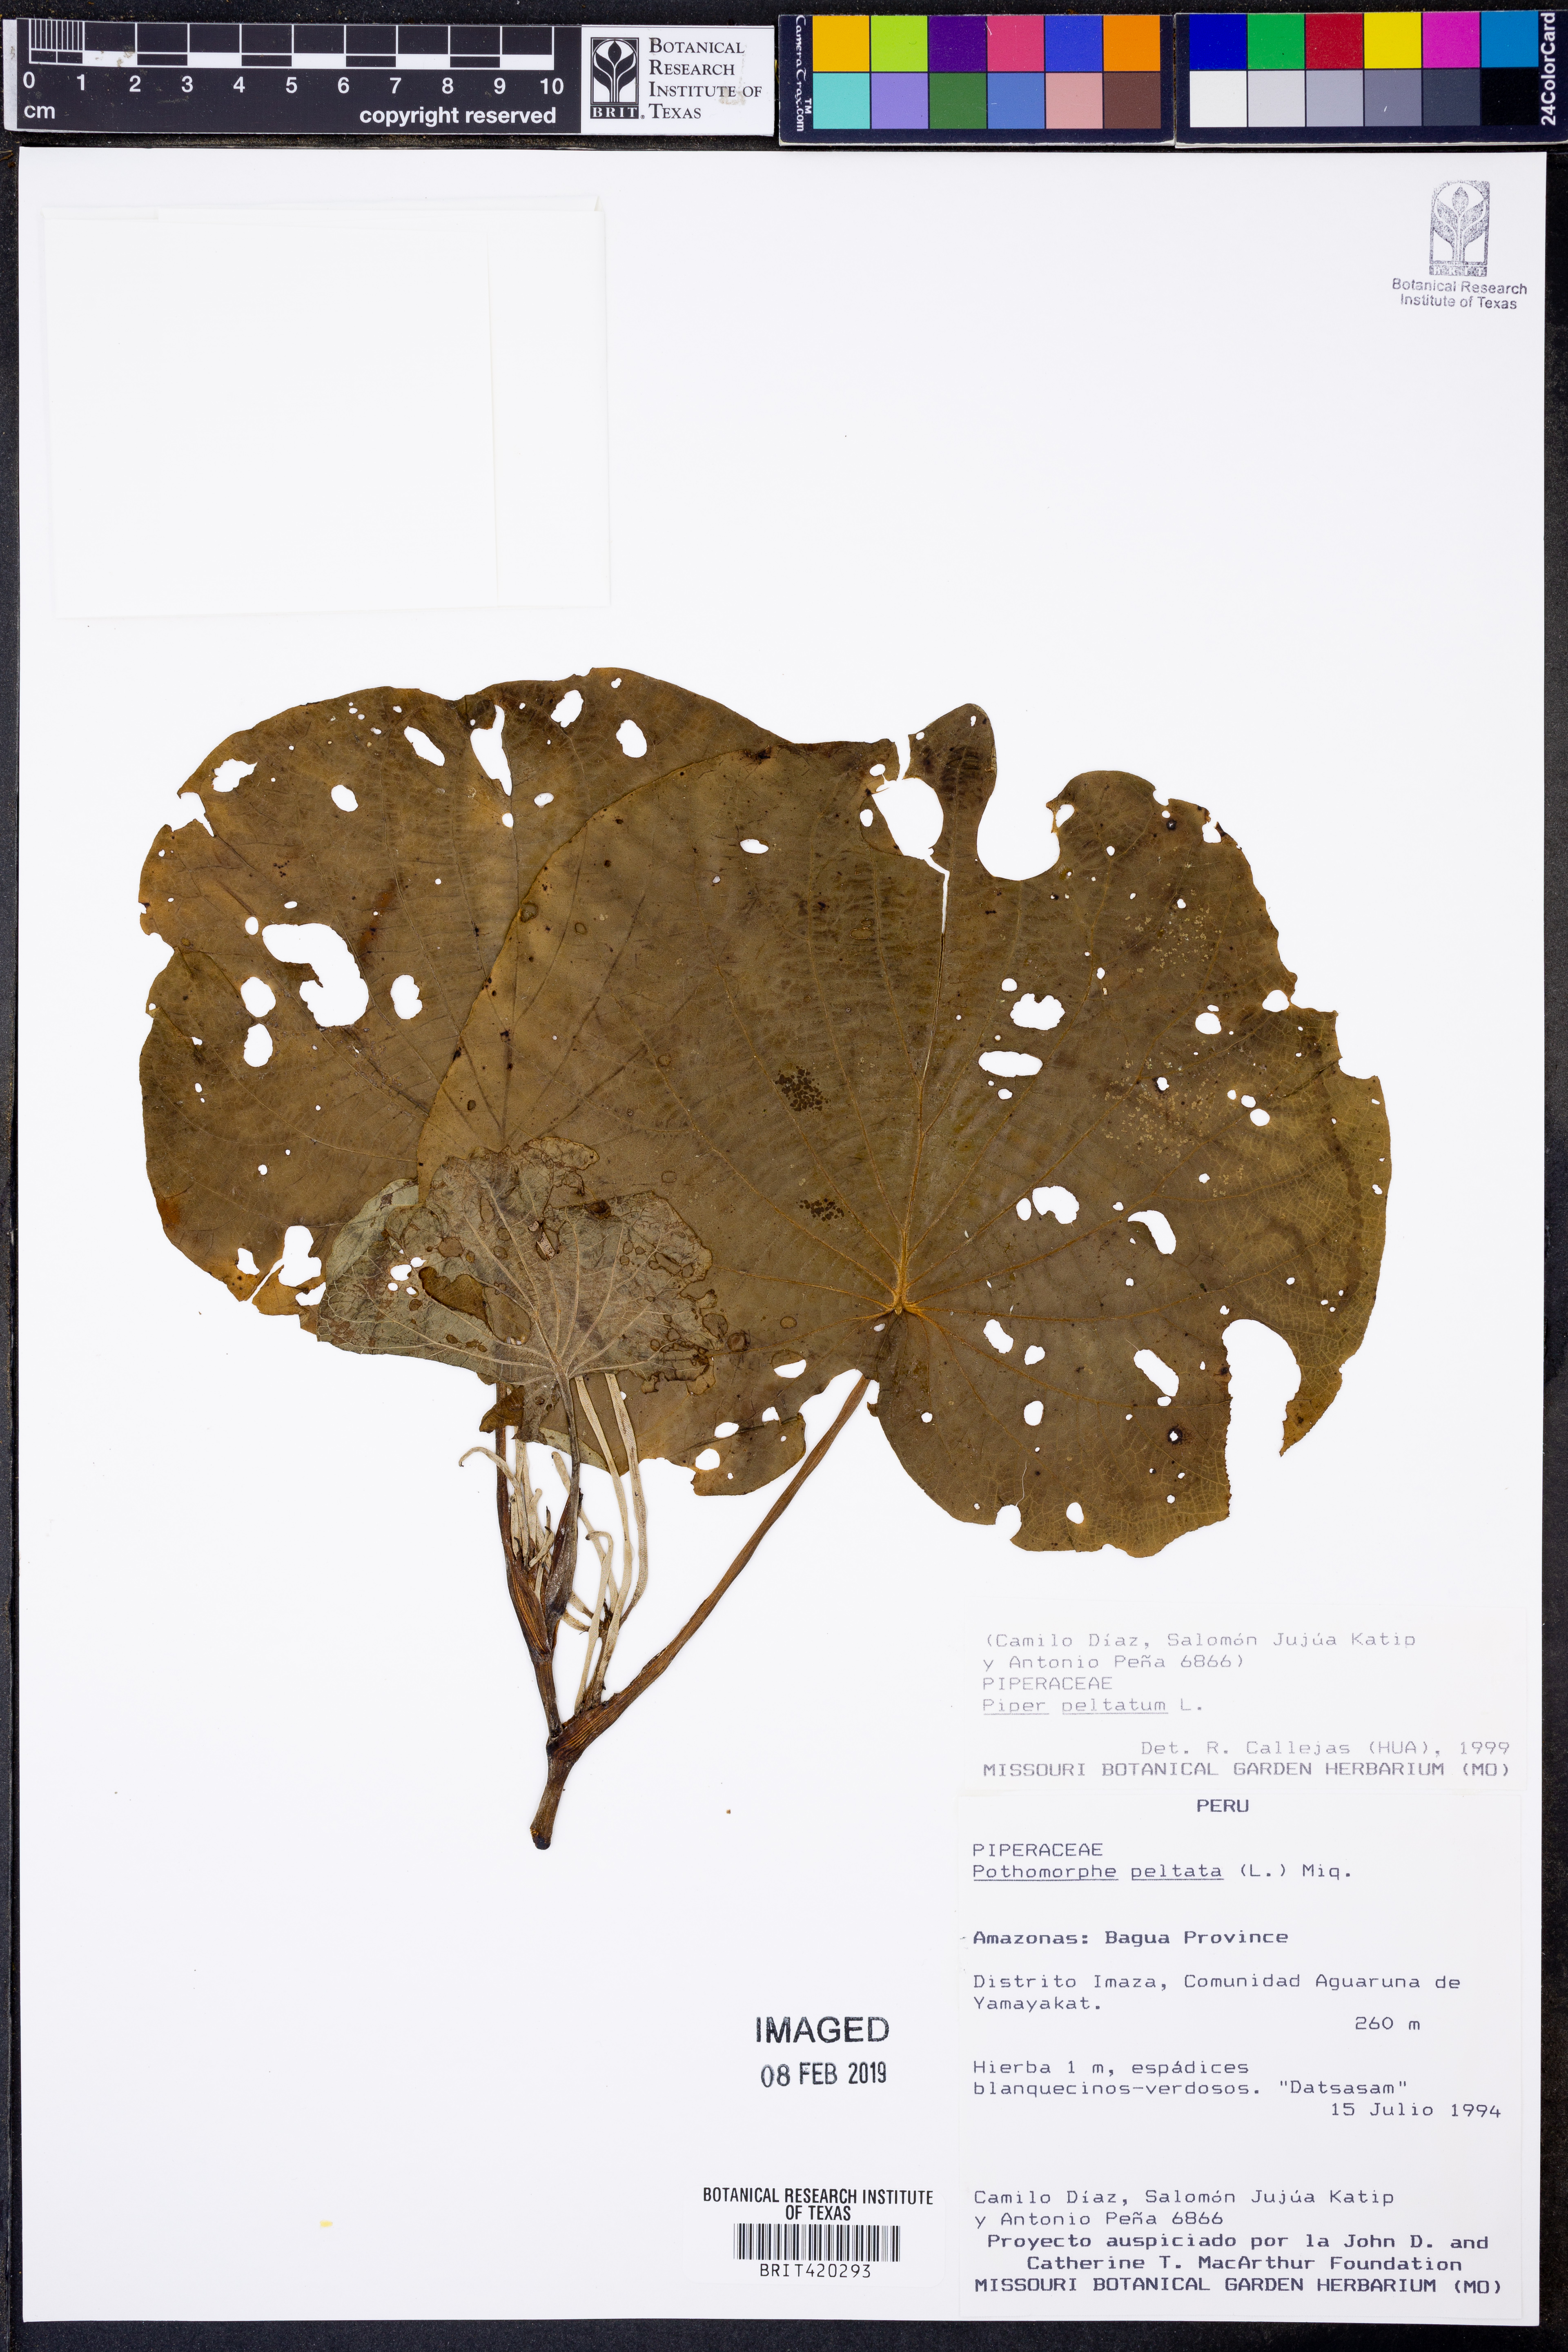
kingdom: Plantae
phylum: Tracheophyta
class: Magnoliopsida
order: Piperales
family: Piperaceae
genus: Piper
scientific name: Piper peltatum
